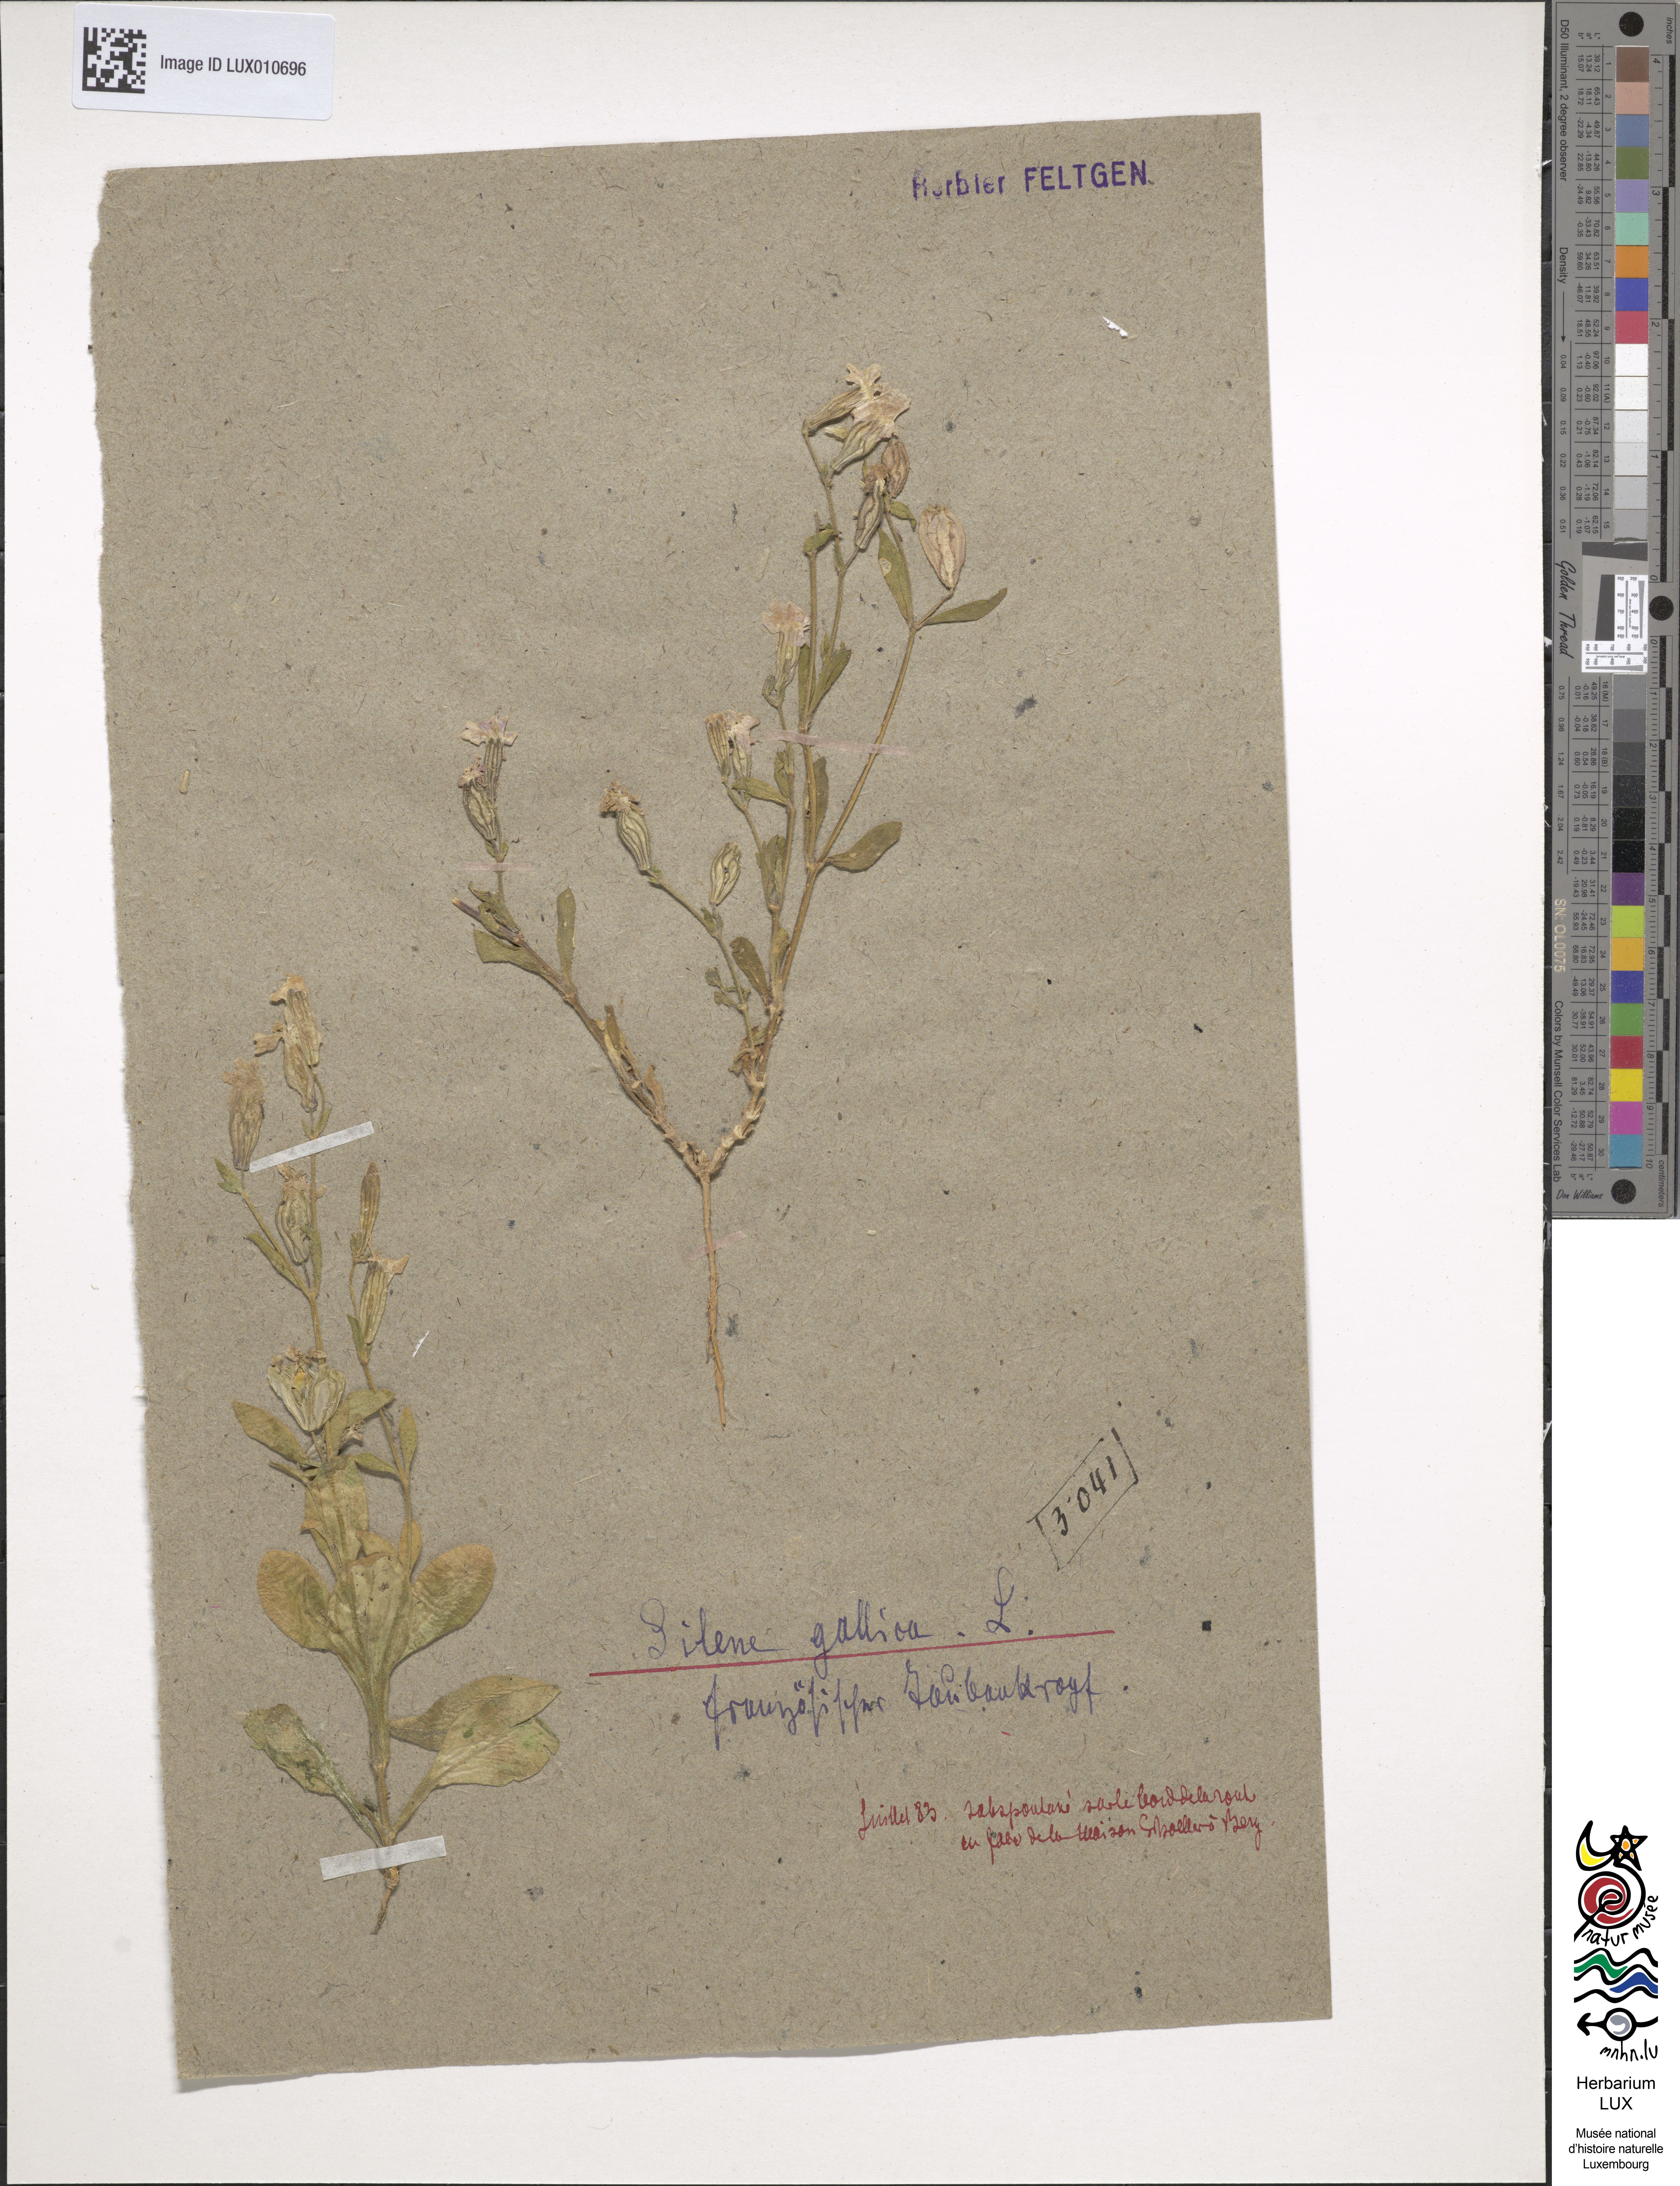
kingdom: Plantae
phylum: Tracheophyta
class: Magnoliopsida
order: Caryophyllales
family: Caryophyllaceae
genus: Silene
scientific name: Silene gallica
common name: Small-flowered catchfly
